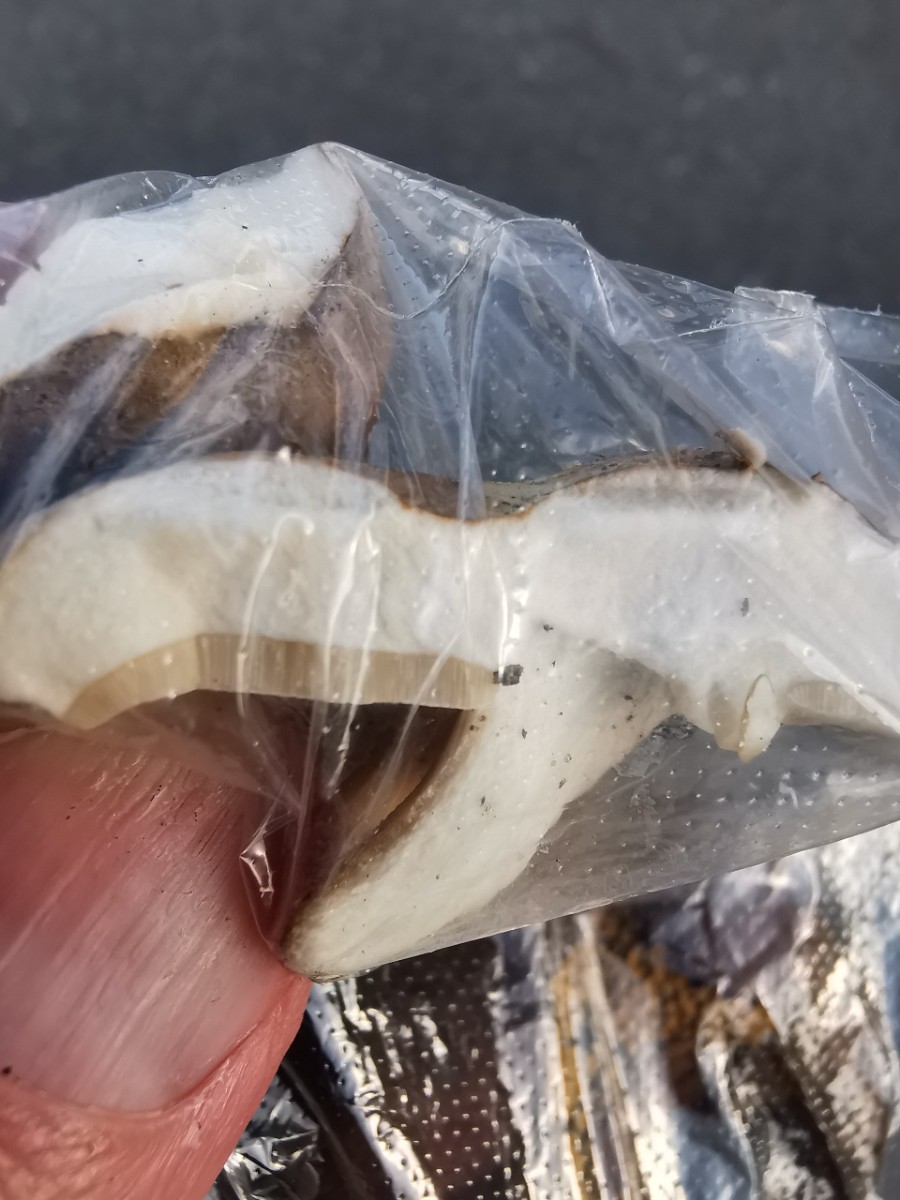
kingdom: Fungi
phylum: Basidiomycota
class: Agaricomycetes
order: Boletales
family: Boletaceae
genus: Boletus
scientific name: Boletus reticulatus
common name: sommer-rørhat
